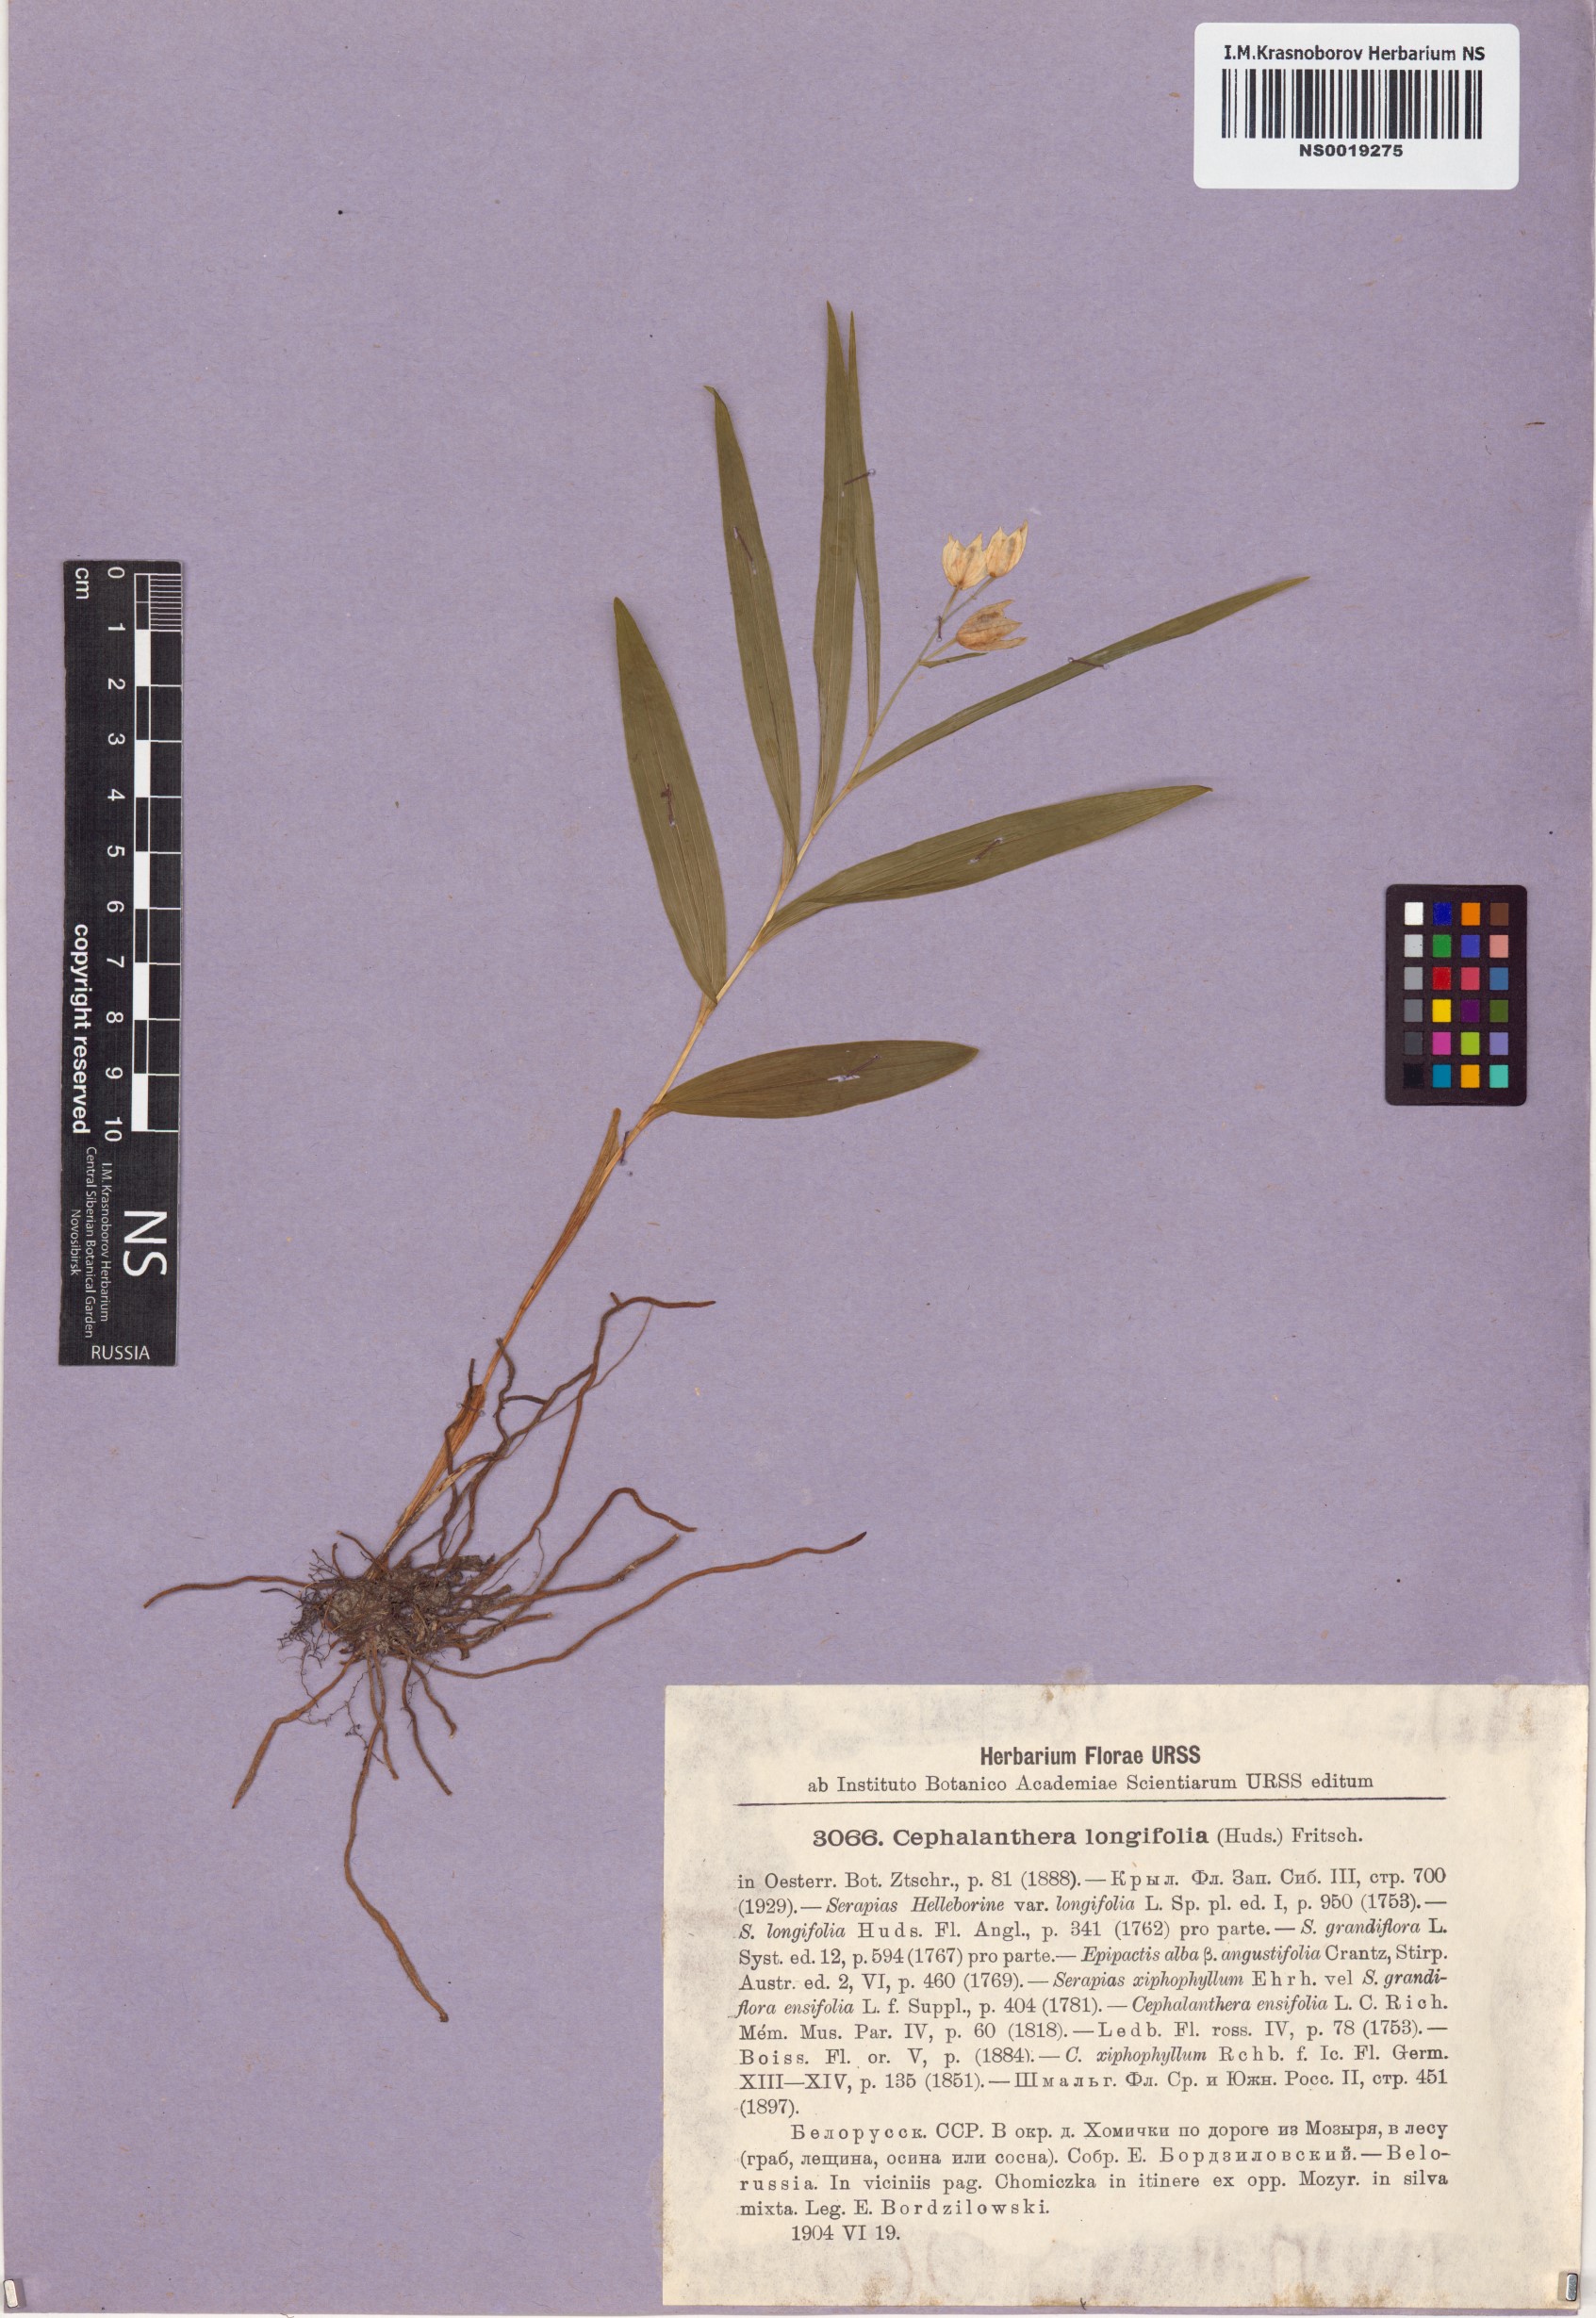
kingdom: Plantae
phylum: Tracheophyta
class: Liliopsida
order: Asparagales
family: Orchidaceae
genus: Cephalanthera
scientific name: Cephalanthera longifolia
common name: Narrow-leaved helleborine
